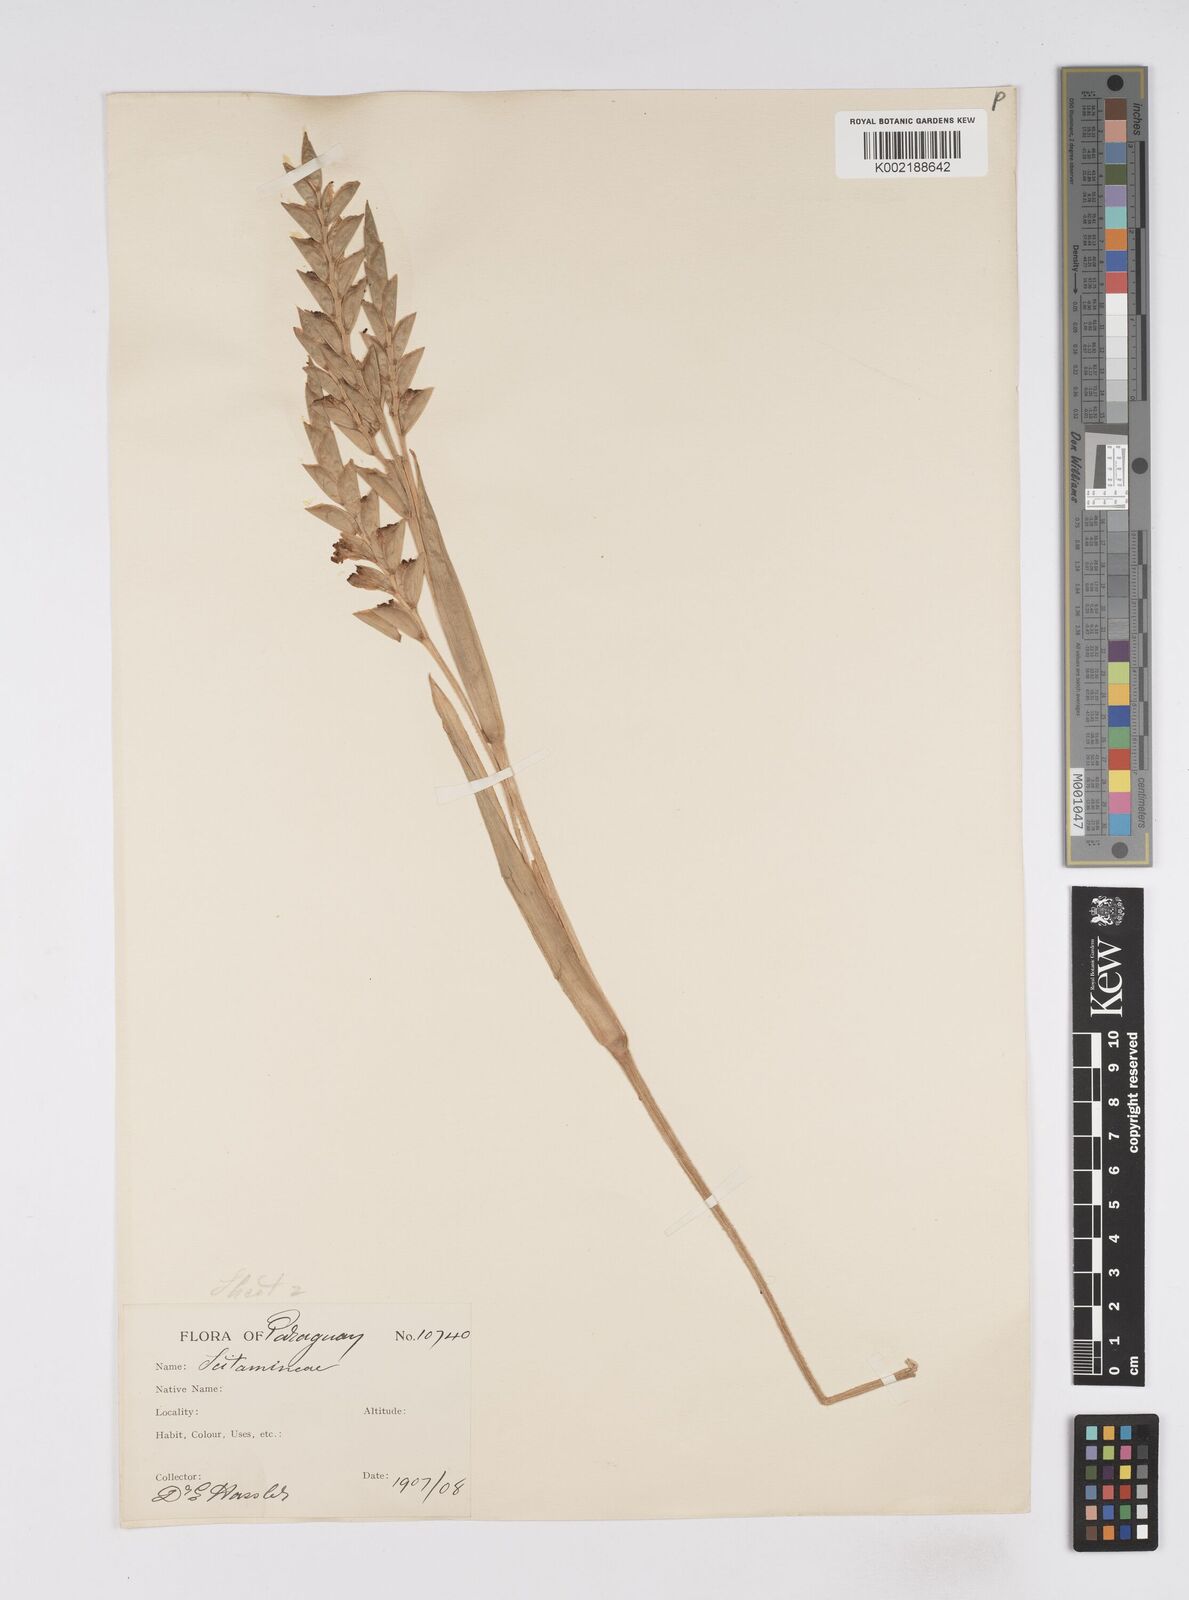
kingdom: Plantae
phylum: Tracheophyta
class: Liliopsida
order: Zingiberales
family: Marantaceae
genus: Saranthe
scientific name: Saranthe eichleri
